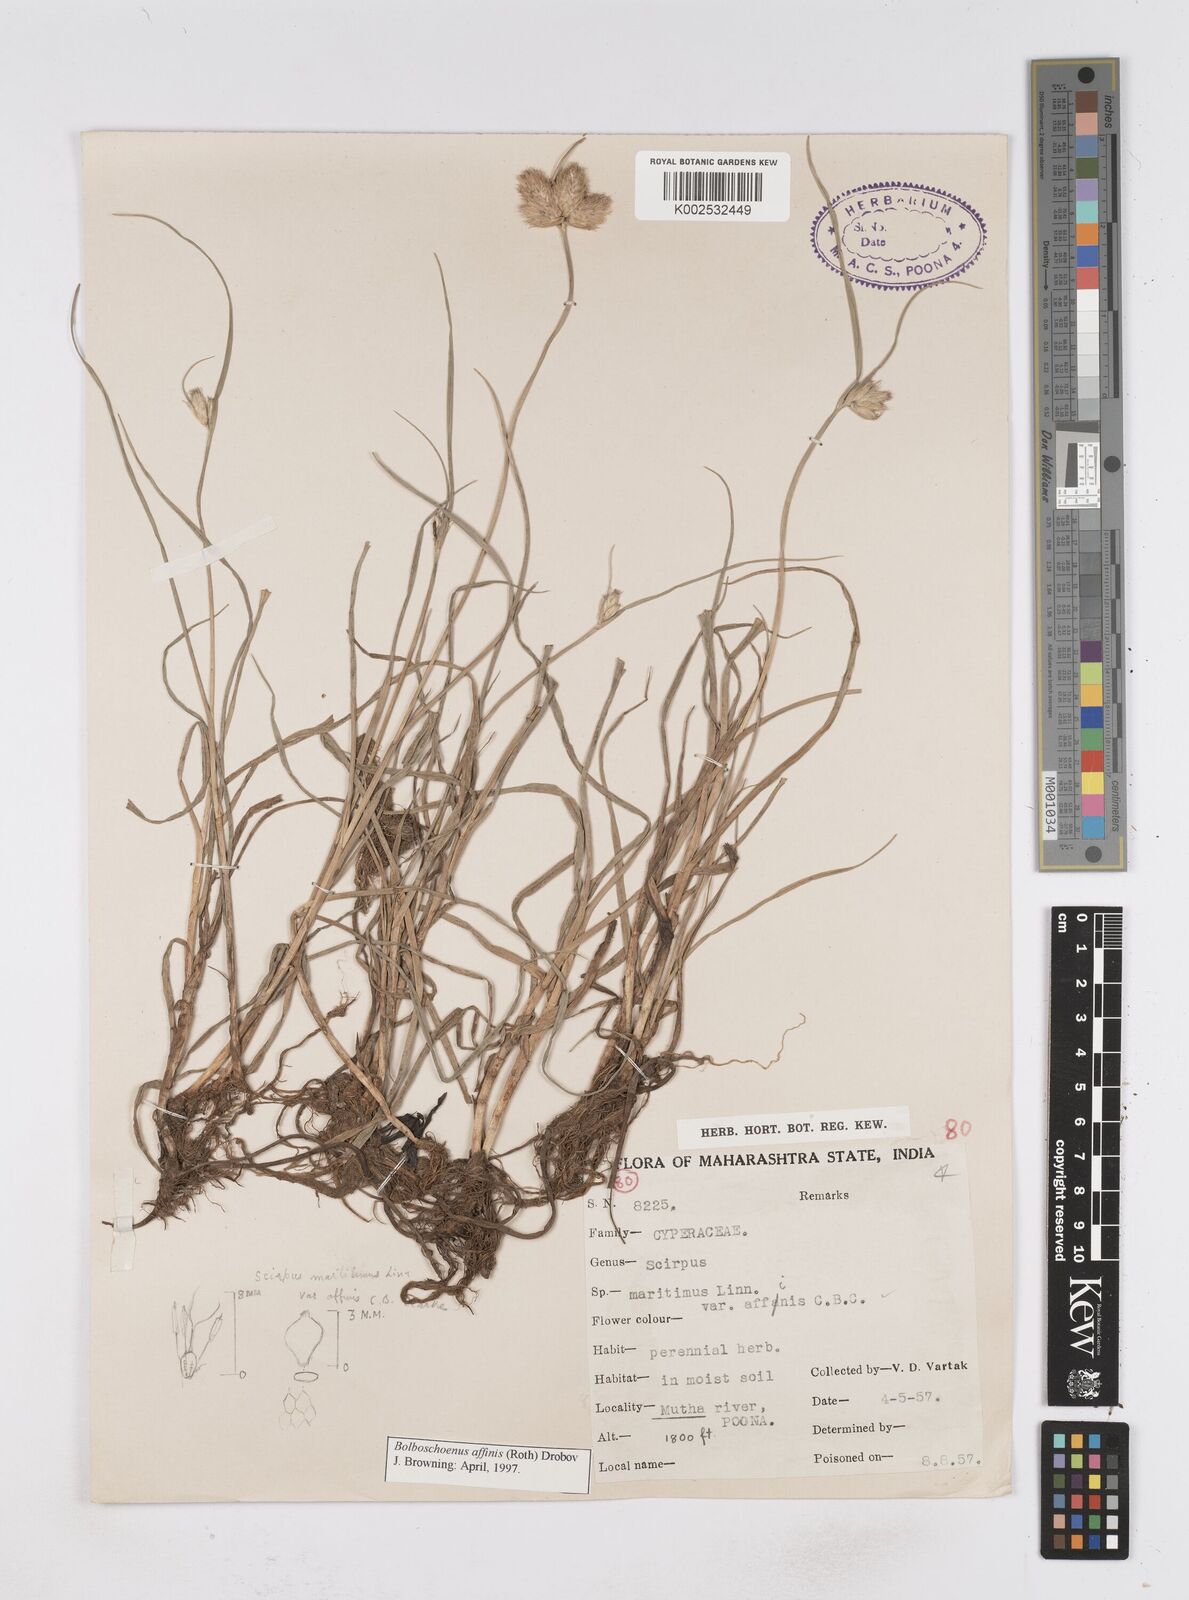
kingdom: Plantae
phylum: Tracheophyta
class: Liliopsida
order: Poales
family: Cyperaceae
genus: Bolboschoenus
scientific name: Bolboschoenus maritimus
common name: Sea club-rush
